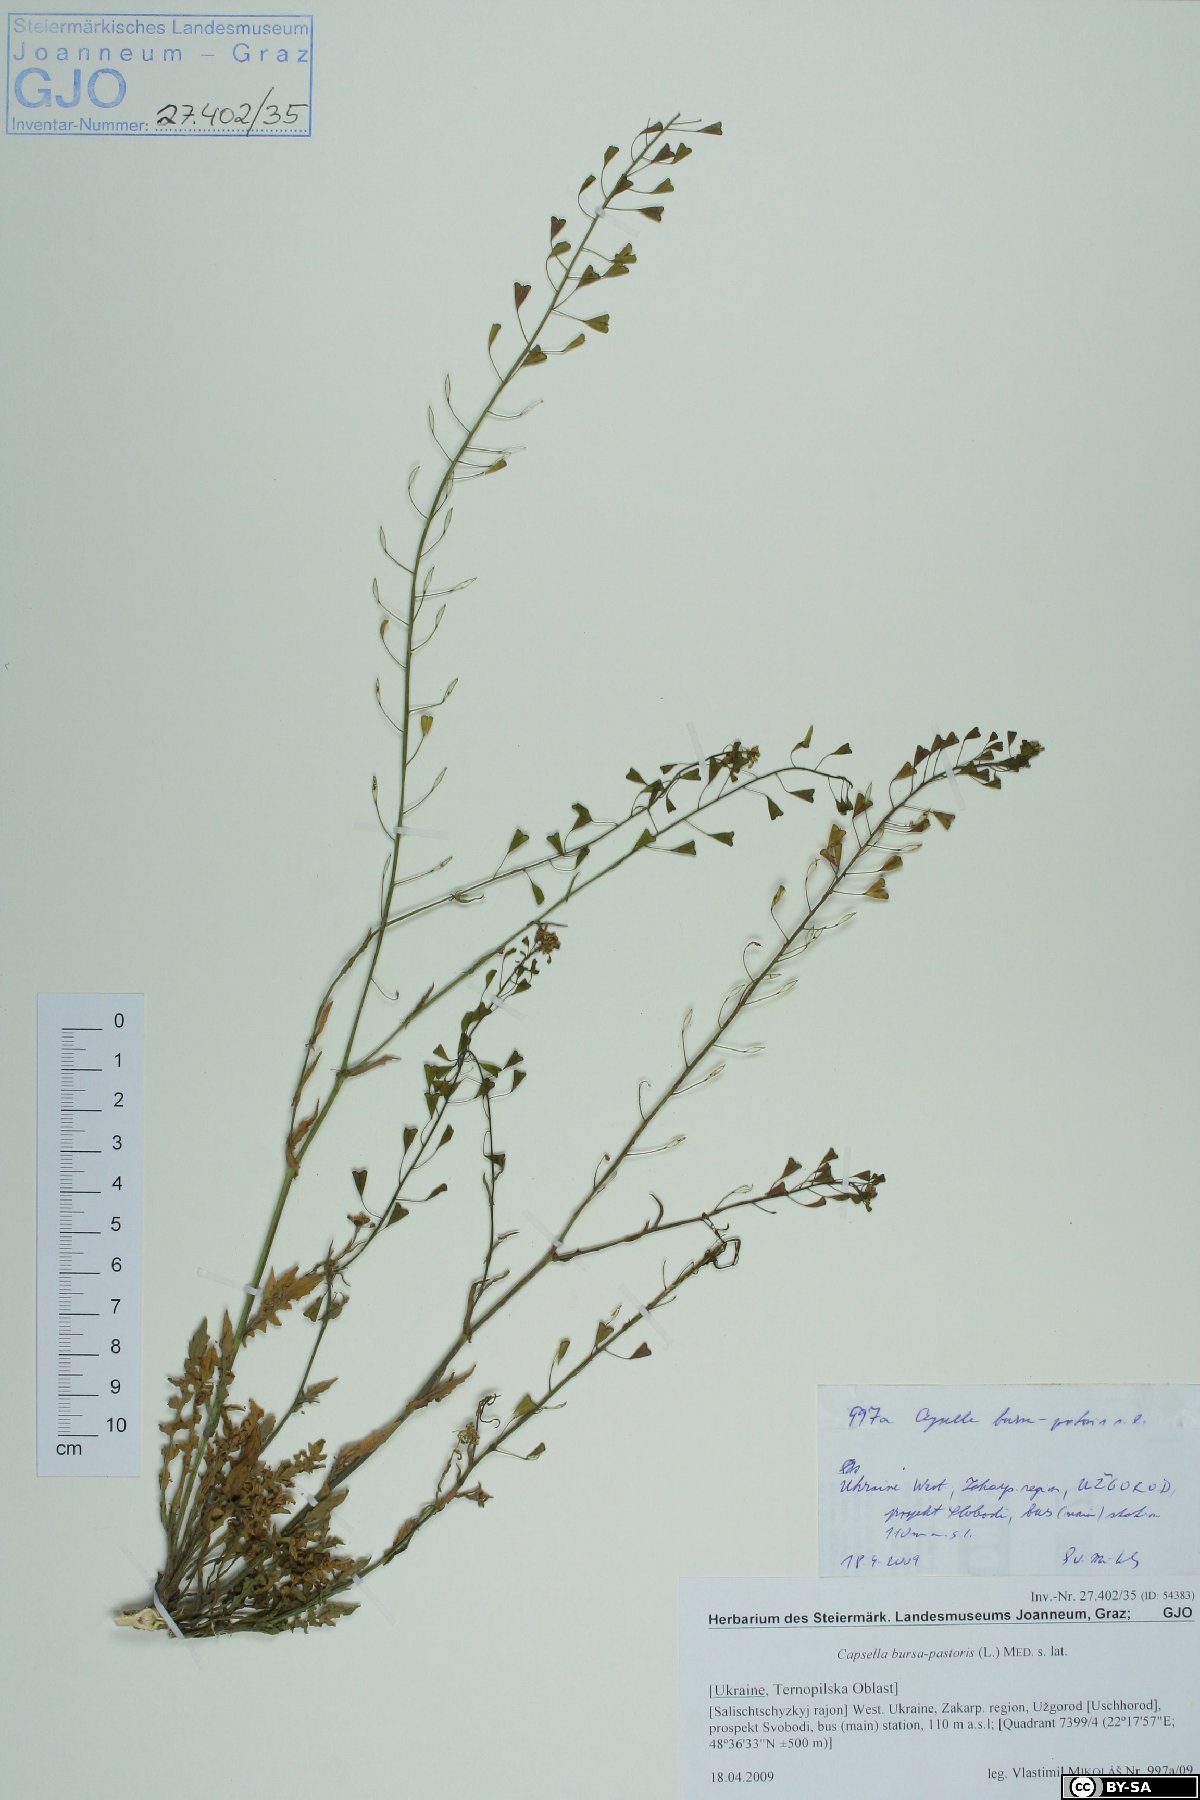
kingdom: Plantae
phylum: Tracheophyta
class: Magnoliopsida
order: Brassicales
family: Brassicaceae
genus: Capsella
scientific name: Capsella bursa-pastoris
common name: Shepherd's purse
